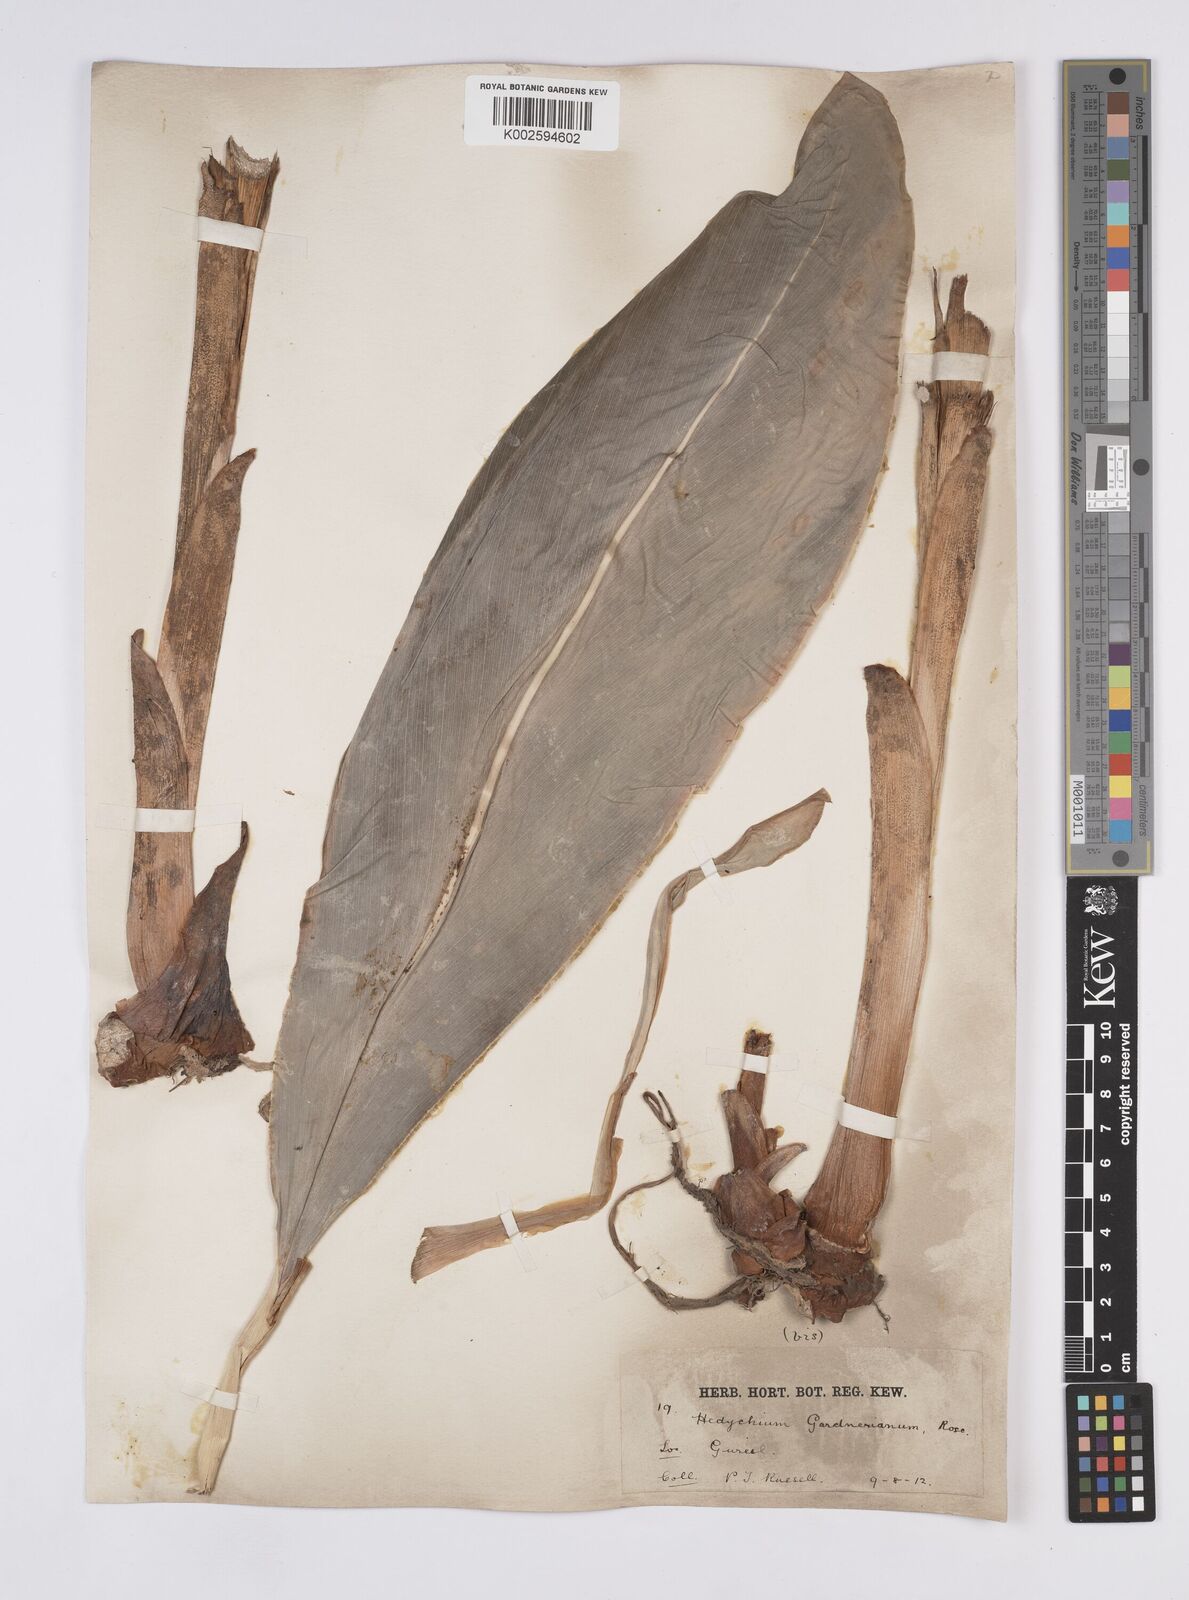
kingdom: Plantae
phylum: Tracheophyta
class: Liliopsida
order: Zingiberales
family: Zingiberaceae
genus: Hedychium
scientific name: Hedychium gardnerianum
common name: Himalayan ginger
